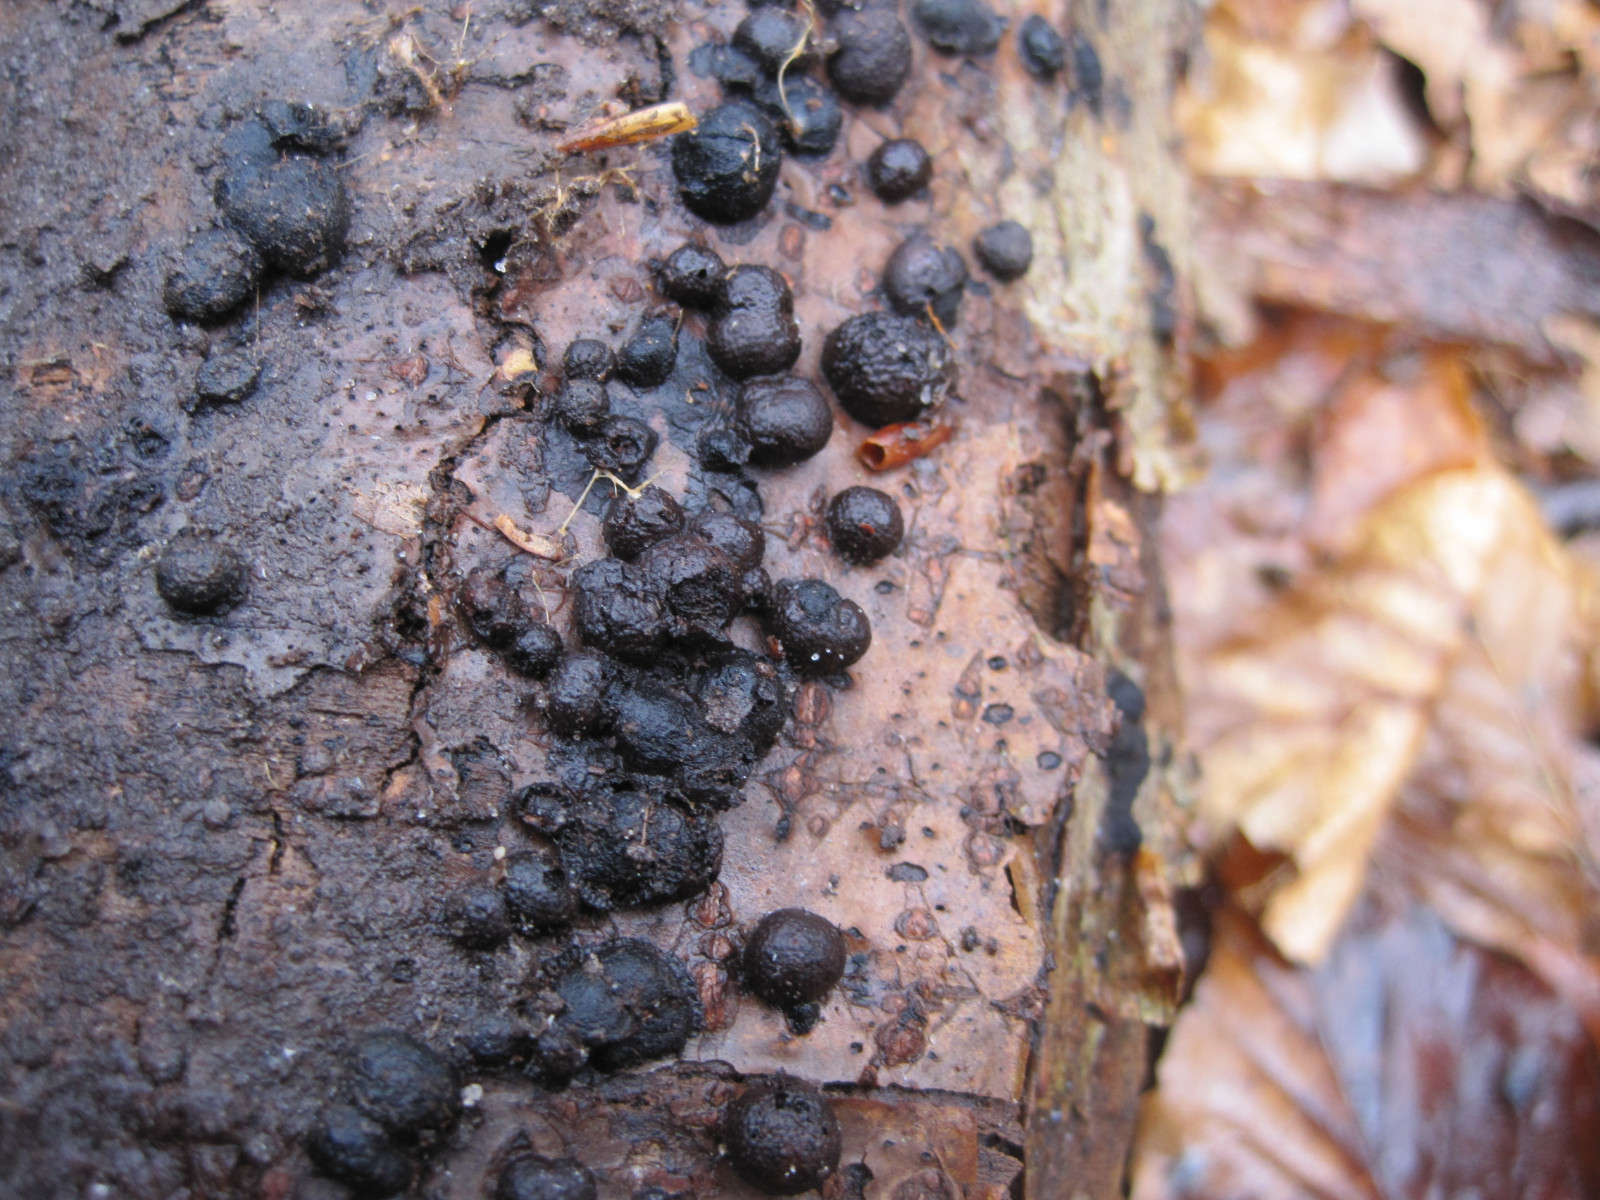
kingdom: Fungi
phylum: Ascomycota
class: Sordariomycetes
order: Xylariales
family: Hypoxylaceae
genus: Hypoxylon
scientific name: Hypoxylon fragiforme
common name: kuljordbær
